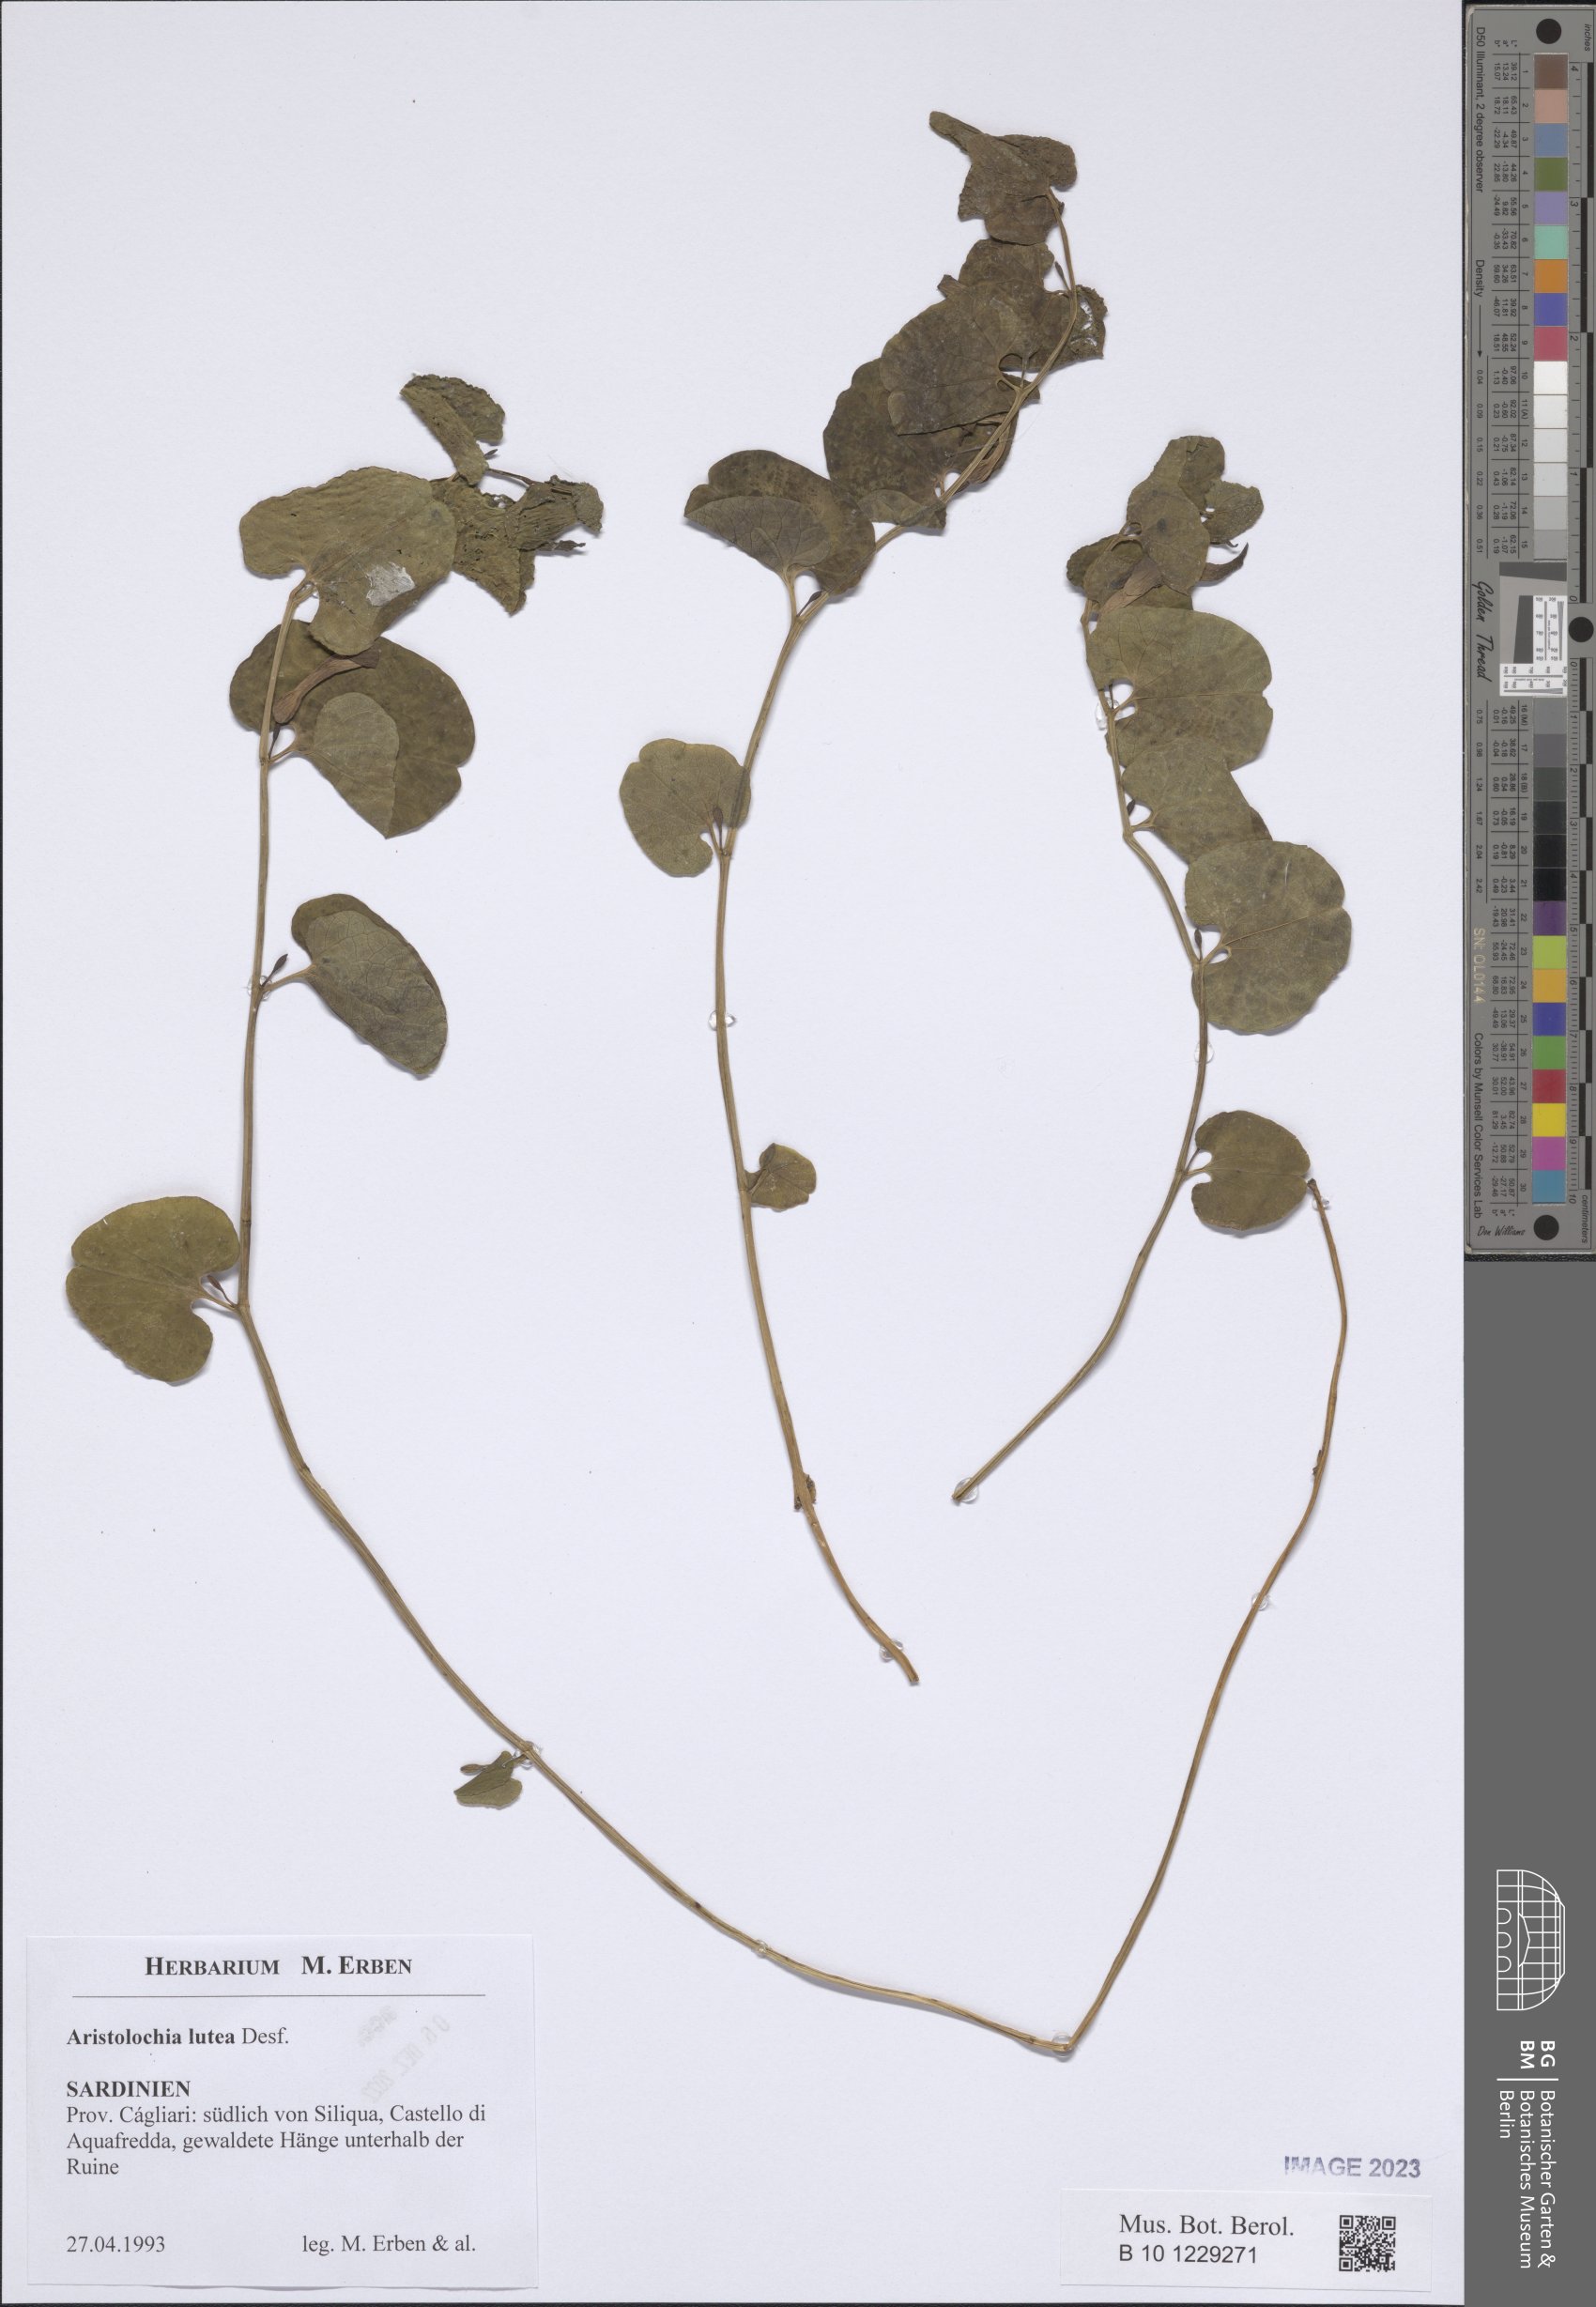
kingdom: Plantae
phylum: Tracheophyta
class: Magnoliopsida
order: Piperales
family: Aristolochiaceae
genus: Aristolochia
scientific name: Aristolochia lutea
